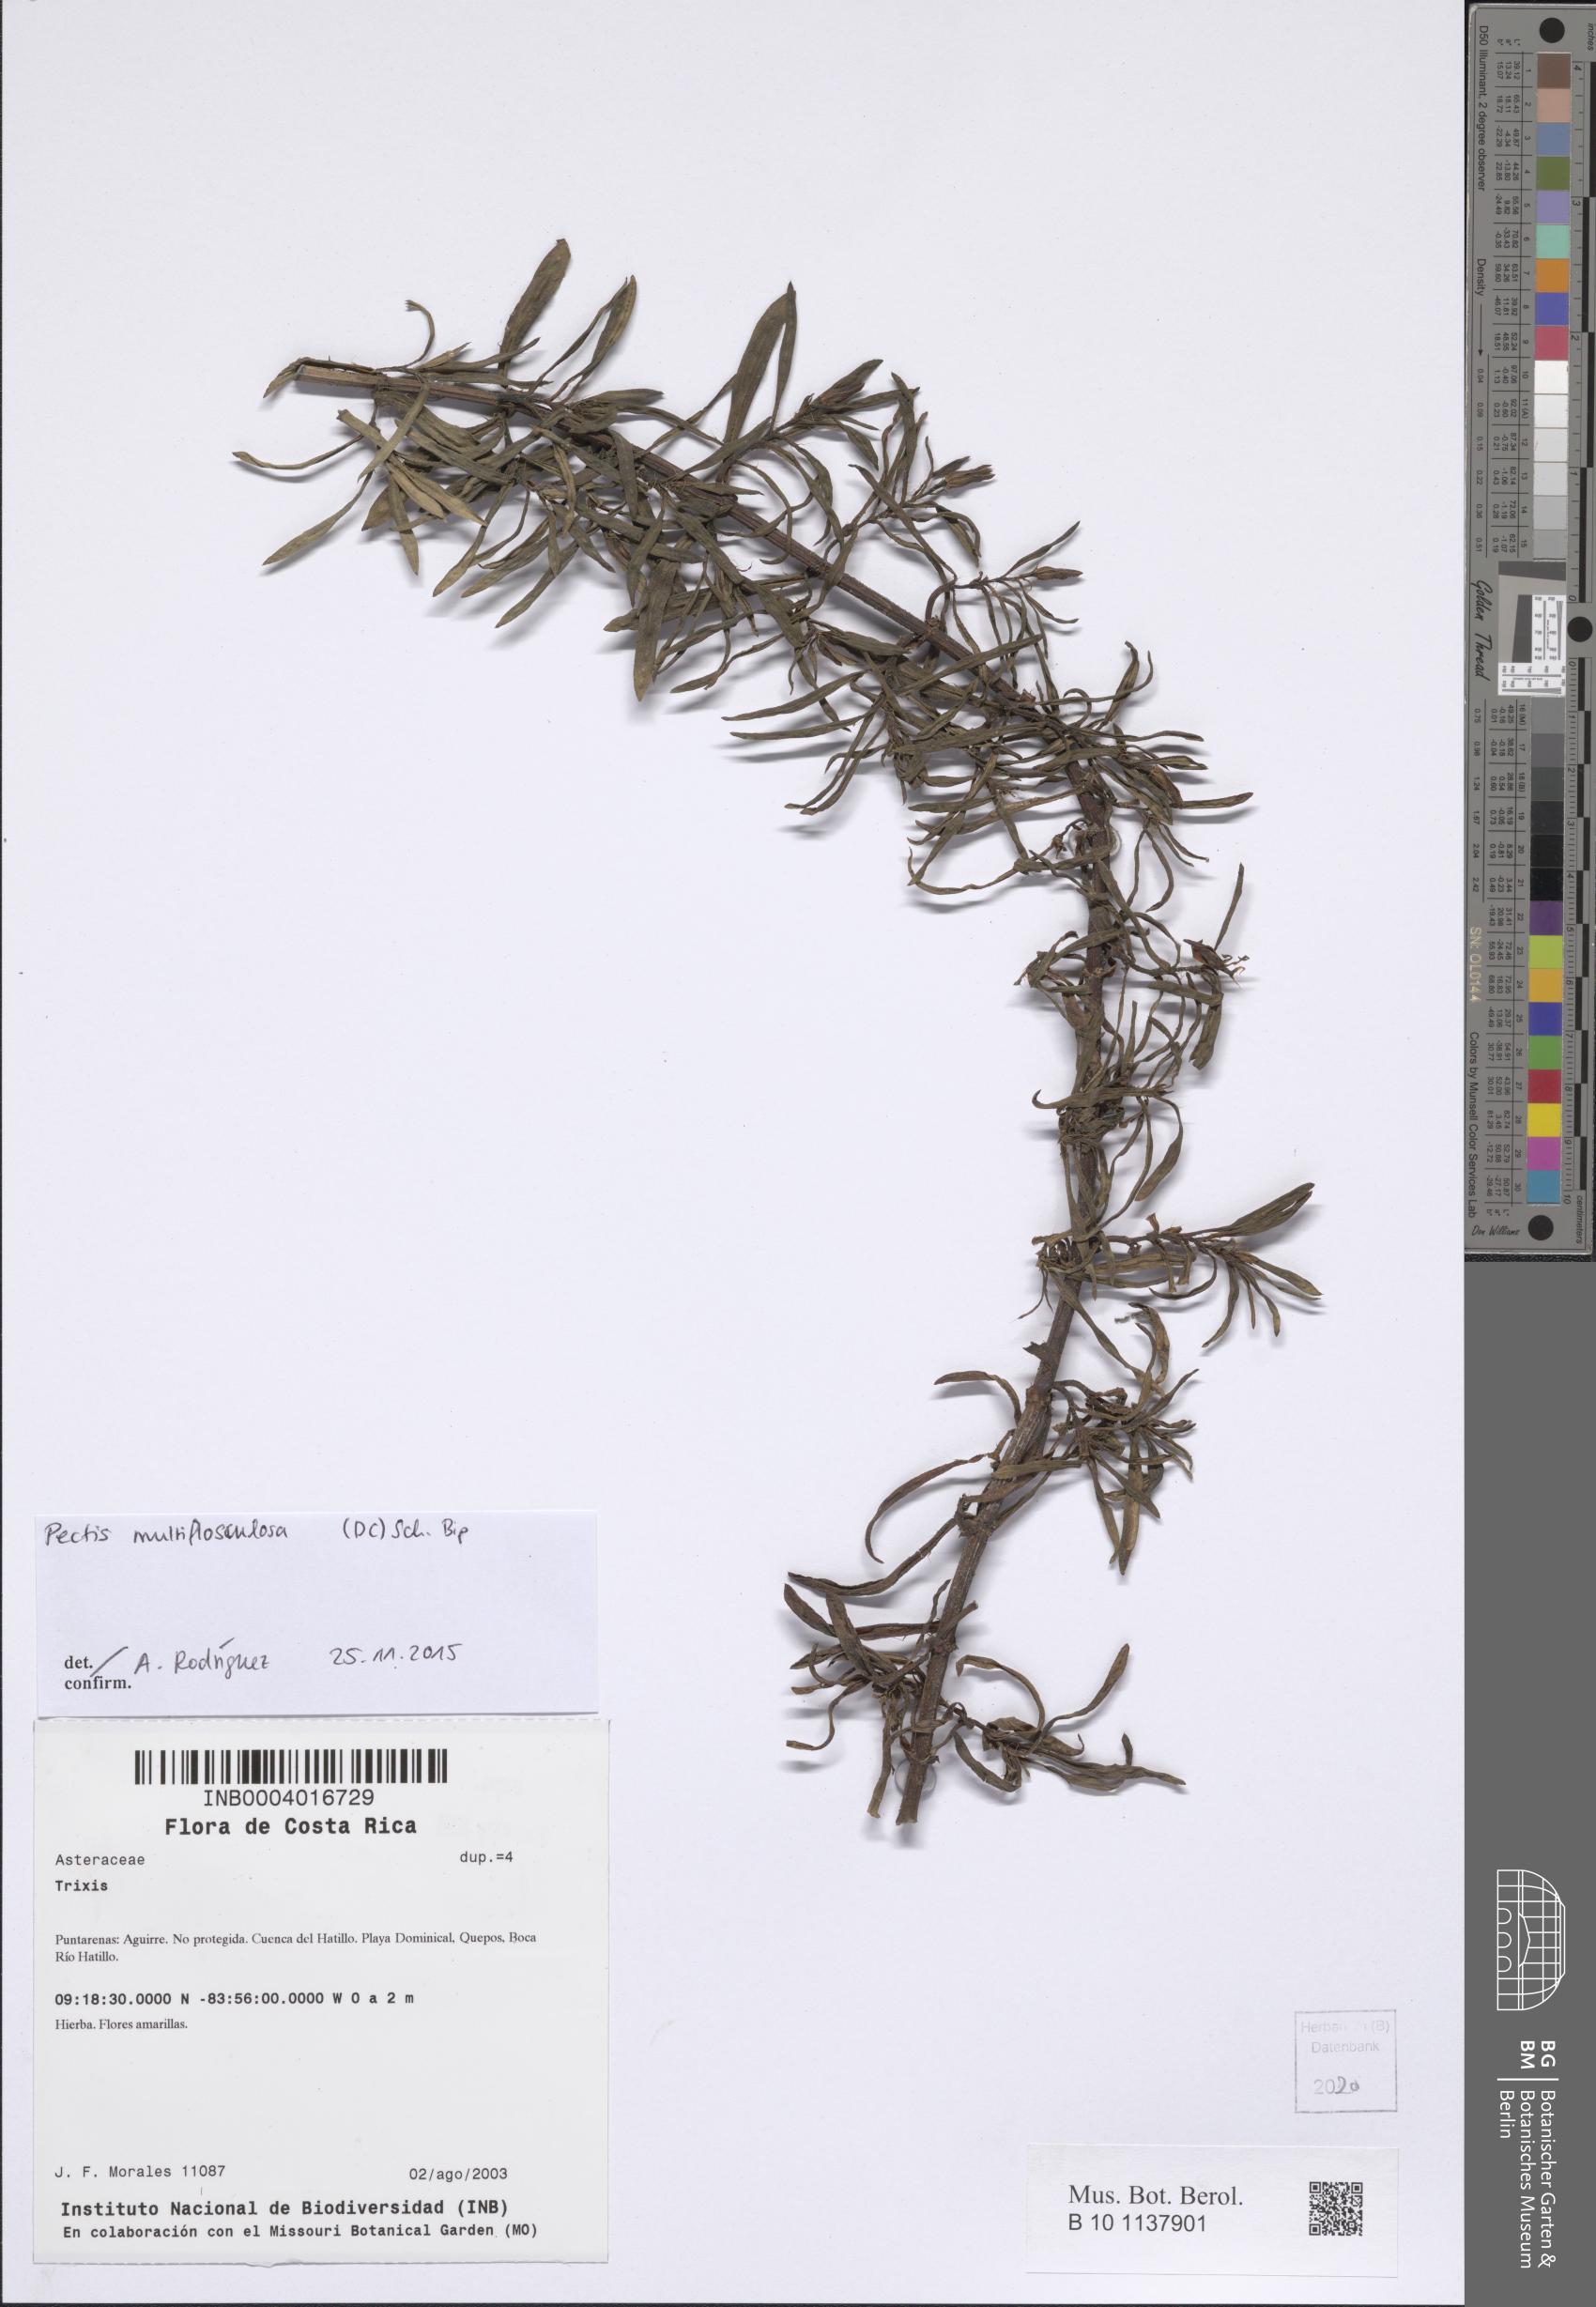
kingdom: Plantae
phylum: Tracheophyta
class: Magnoliopsida
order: Asterales
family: Asteraceae
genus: Pectis
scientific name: Pectis multiflosculosa
